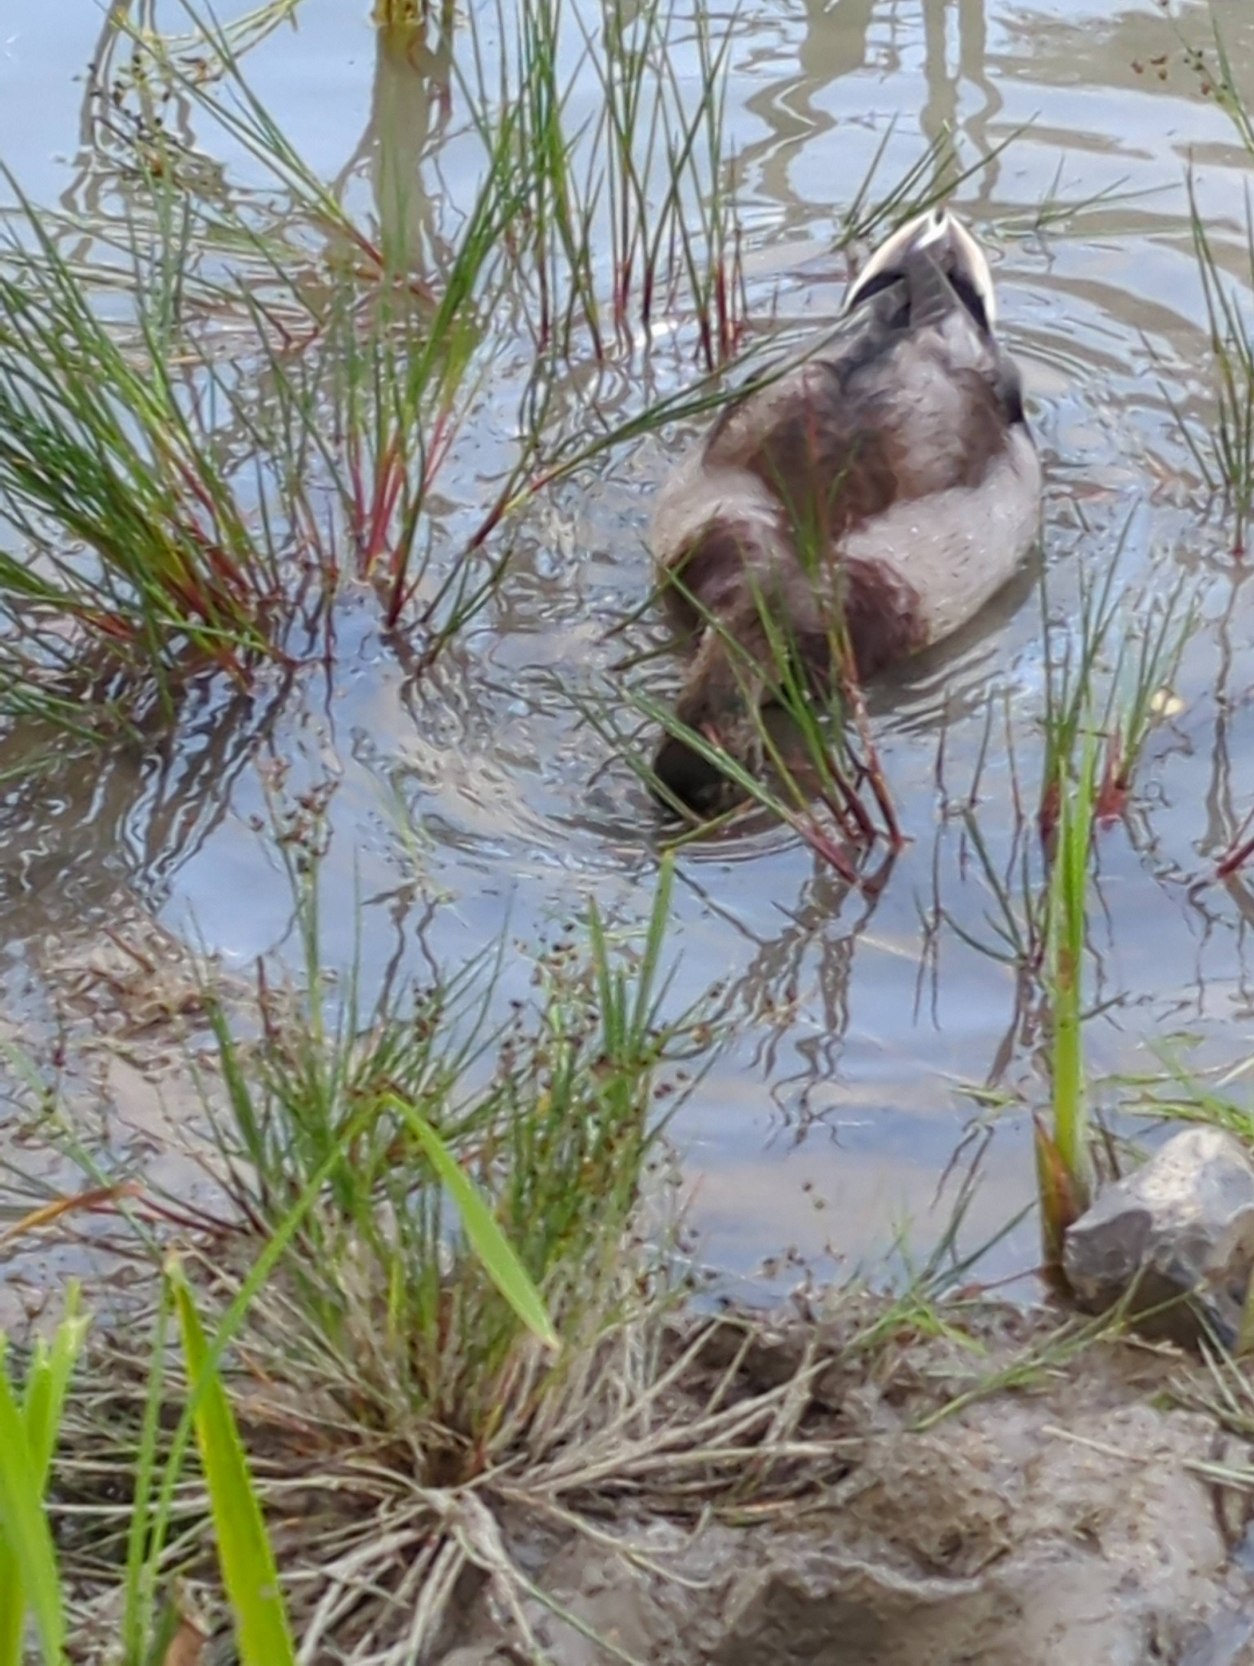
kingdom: Animalia
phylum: Chordata
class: Aves
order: Anseriformes
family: Anatidae
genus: Anas
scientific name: Anas platyrhynchos
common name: Gråand
